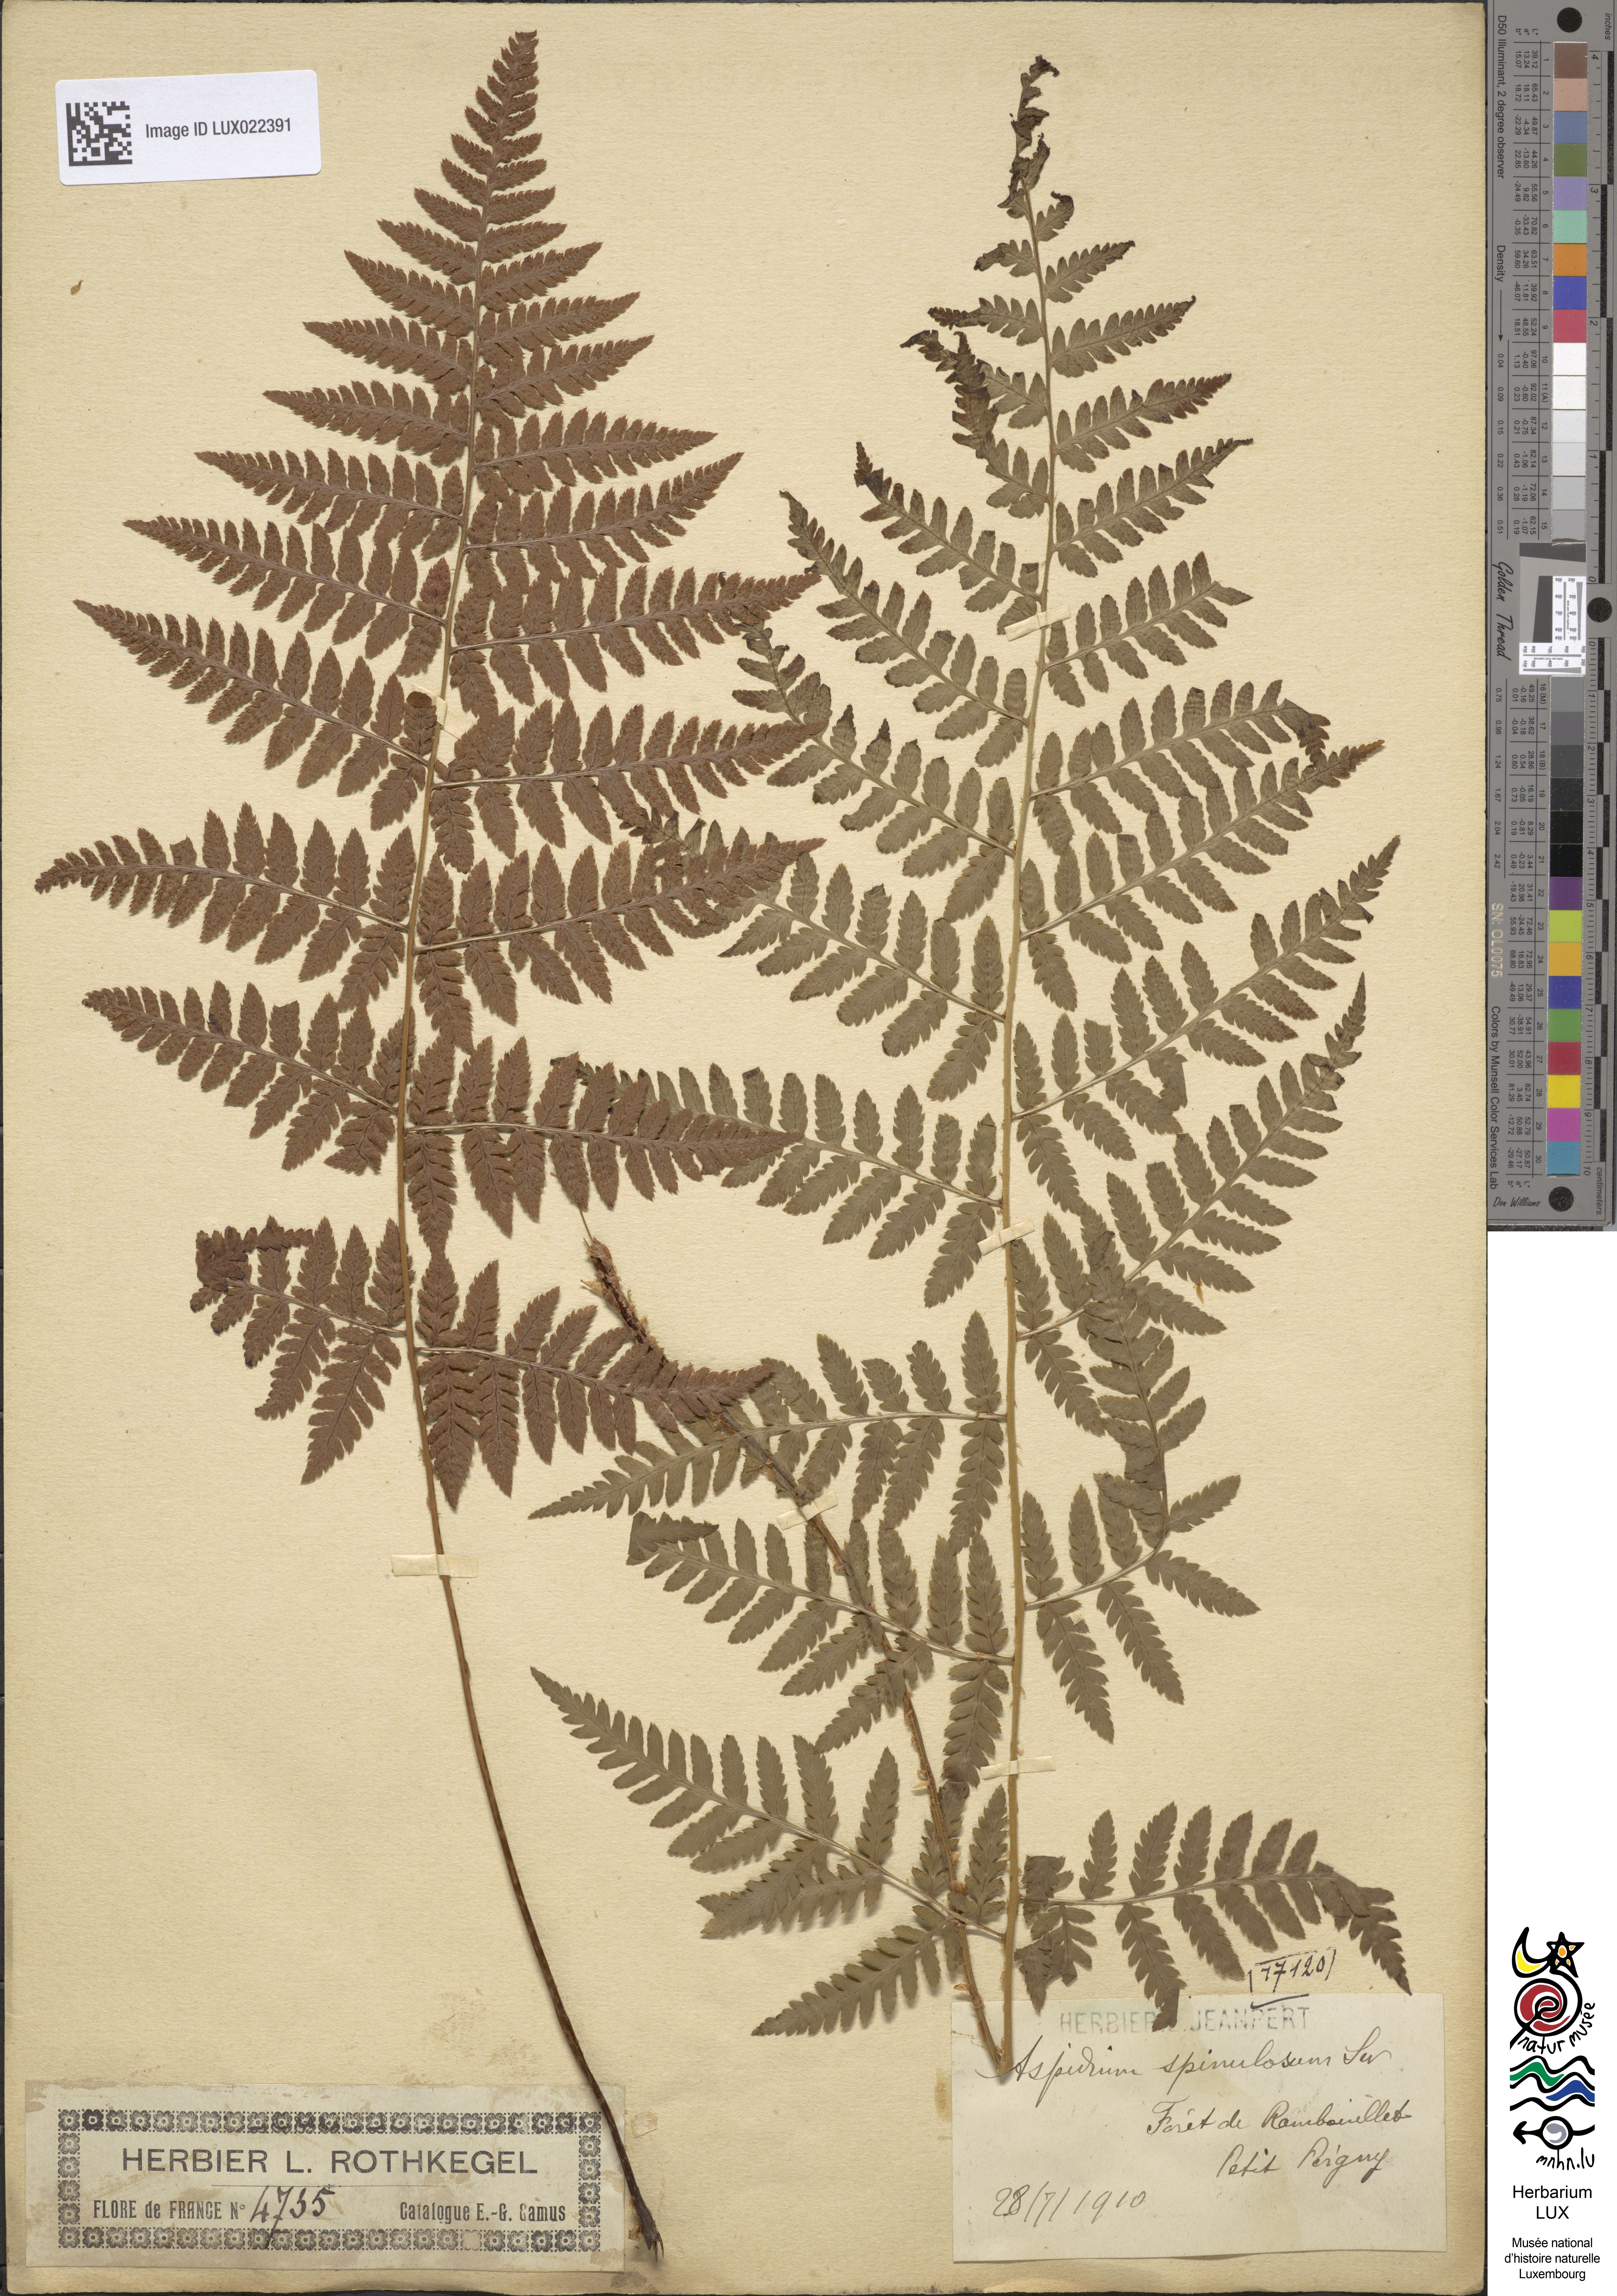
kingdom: Plantae
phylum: Tracheophyta
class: Polypodiopsida
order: Polypodiales
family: Dryopteridaceae
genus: Dryopteris
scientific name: Dryopteris carthusiana
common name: Narrow buckler-fern
